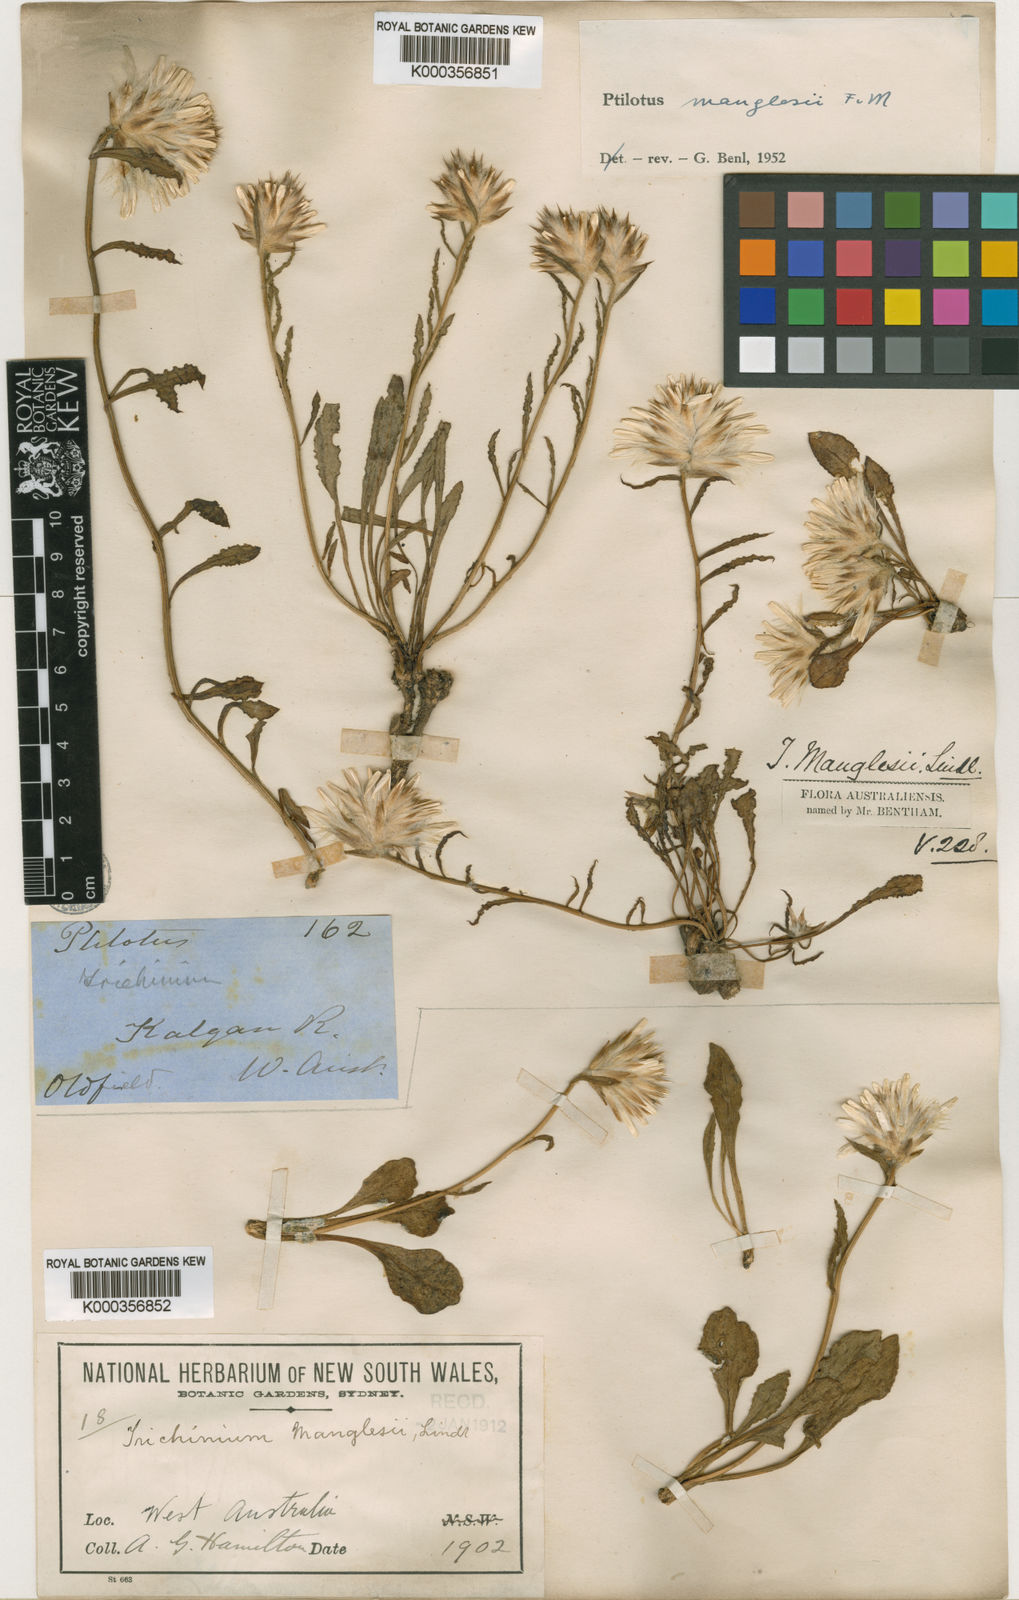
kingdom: Plantae
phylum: Tracheophyta
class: Magnoliopsida
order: Caryophyllales
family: Amaranthaceae
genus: Ptilotus
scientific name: Ptilotus manglesii
